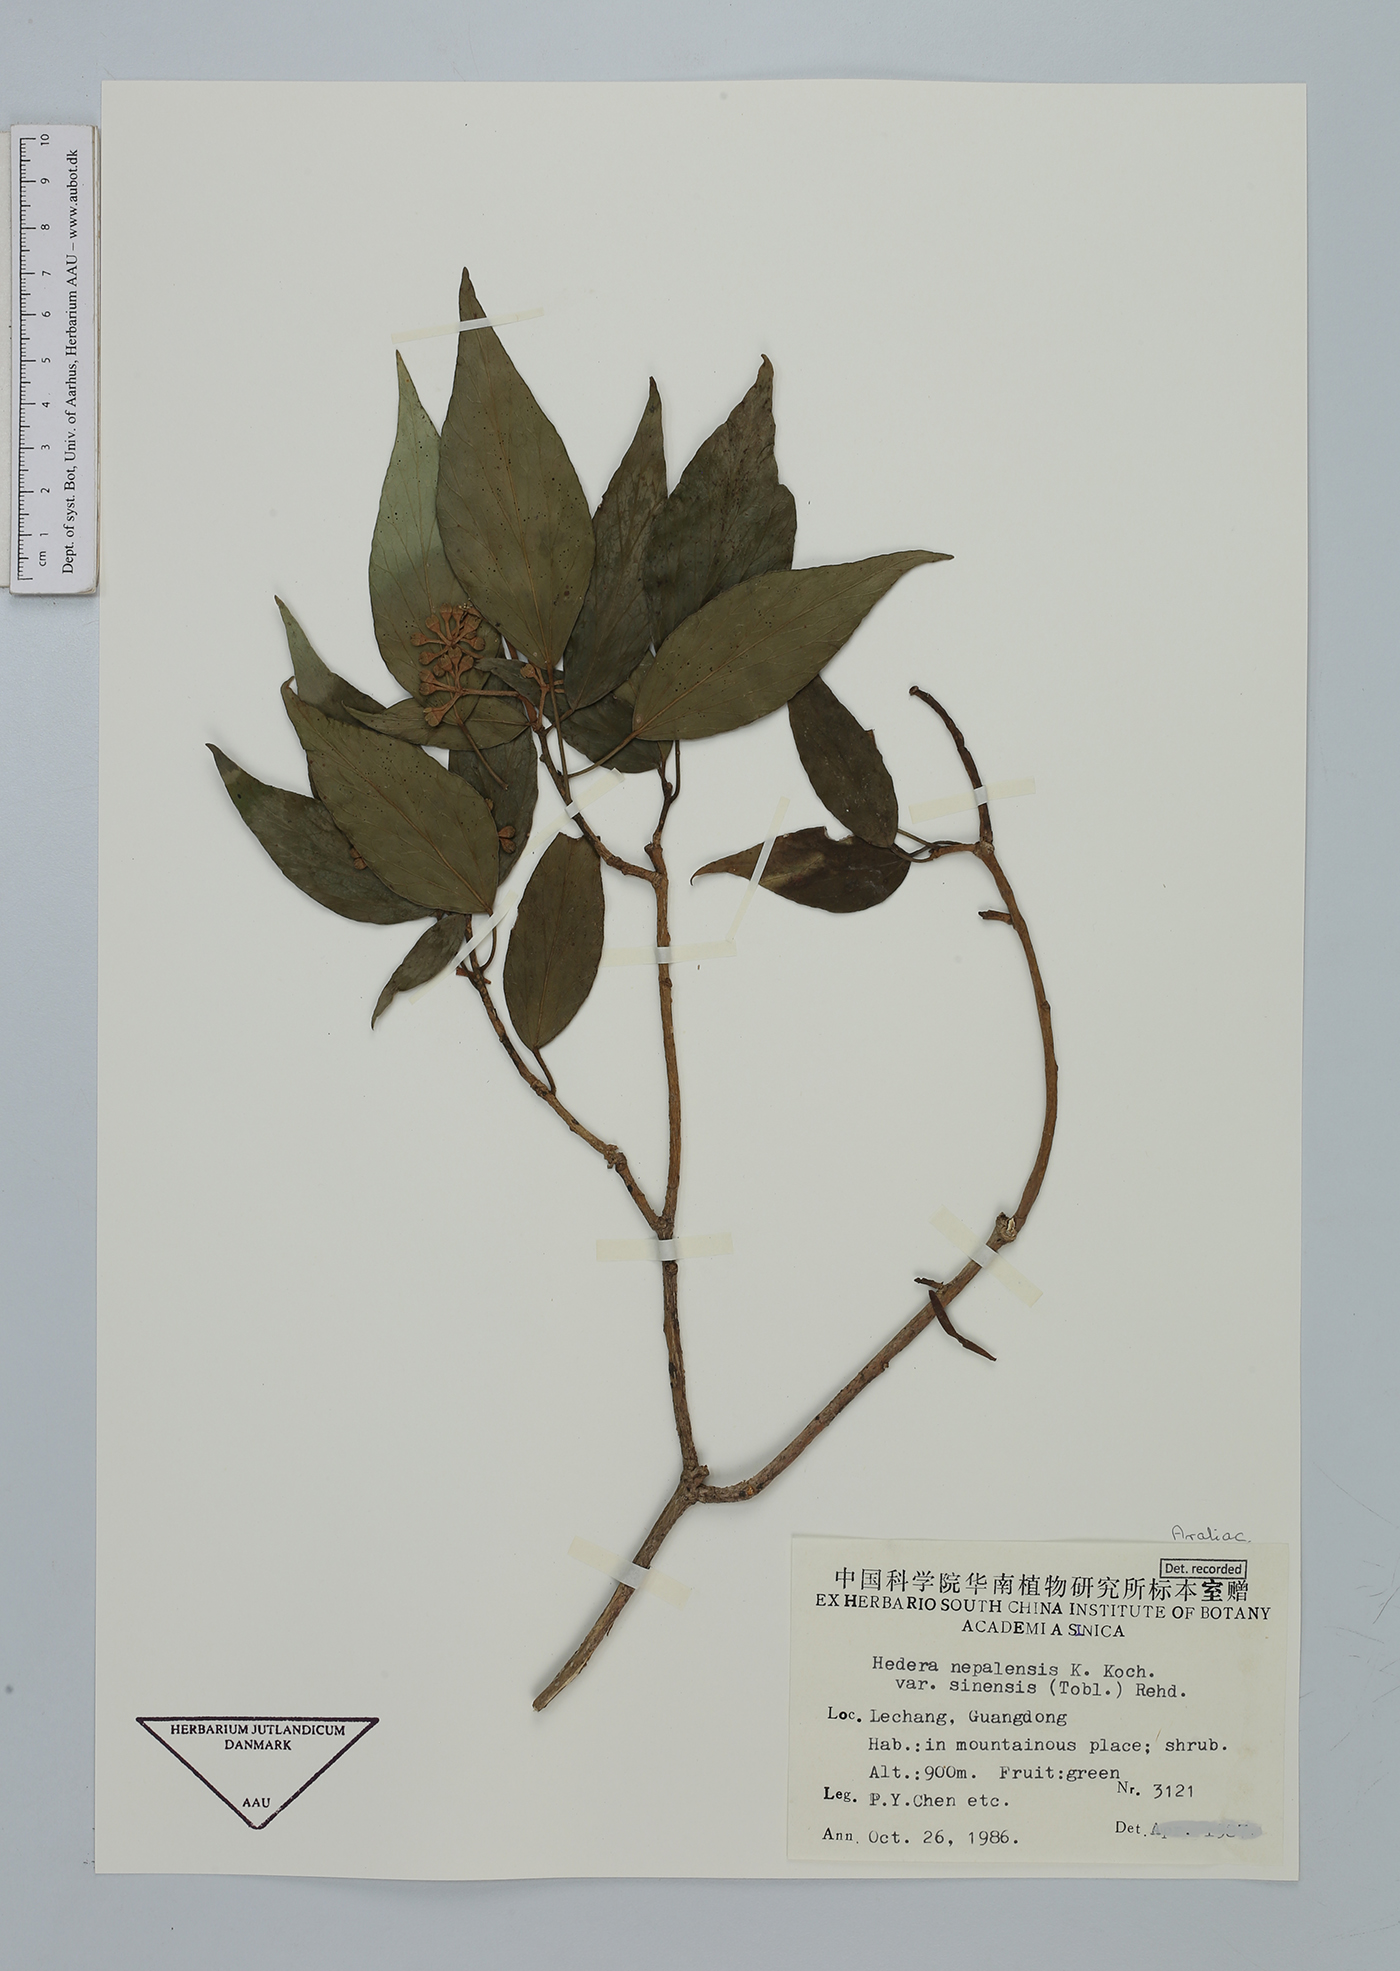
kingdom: Plantae
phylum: Tracheophyta
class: Magnoliopsida
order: Apiales
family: Araliaceae
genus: Hedera
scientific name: Hedera nepalensis
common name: Himalayan ivy
